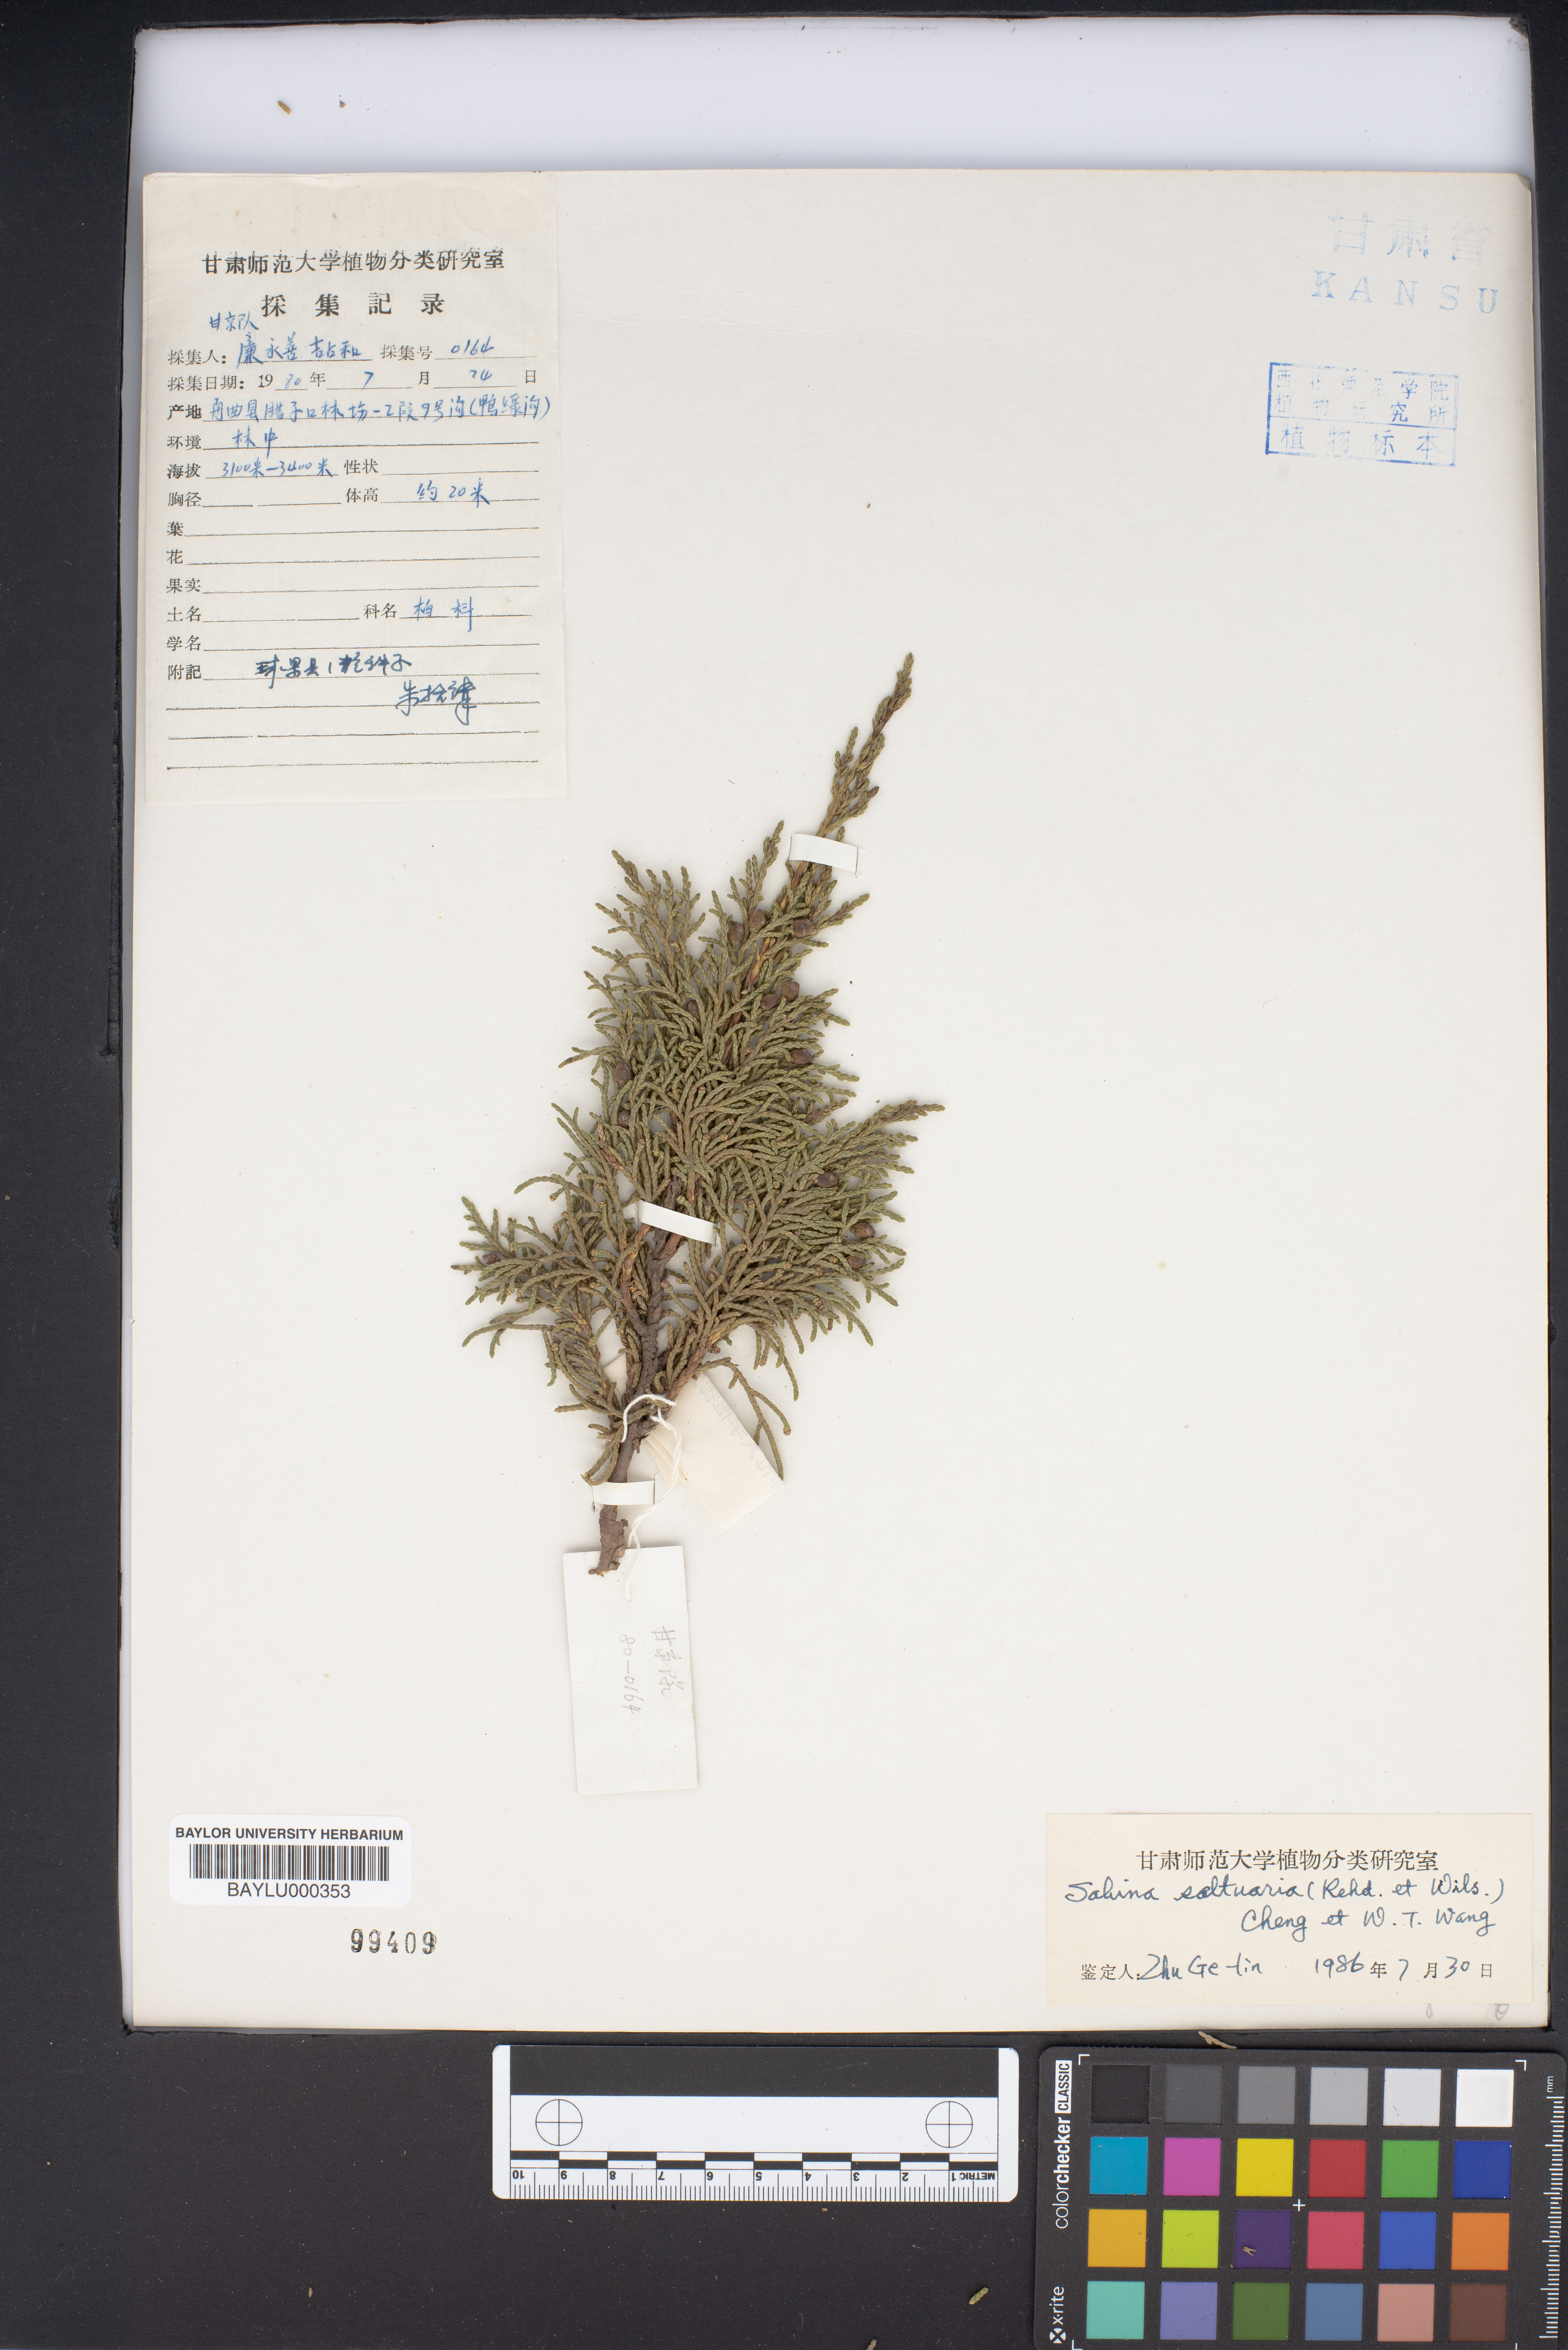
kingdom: Plantae
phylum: Tracheophyta
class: Pinopsida
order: Pinales
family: Cupressaceae
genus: Juniperus
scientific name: Juniperus
